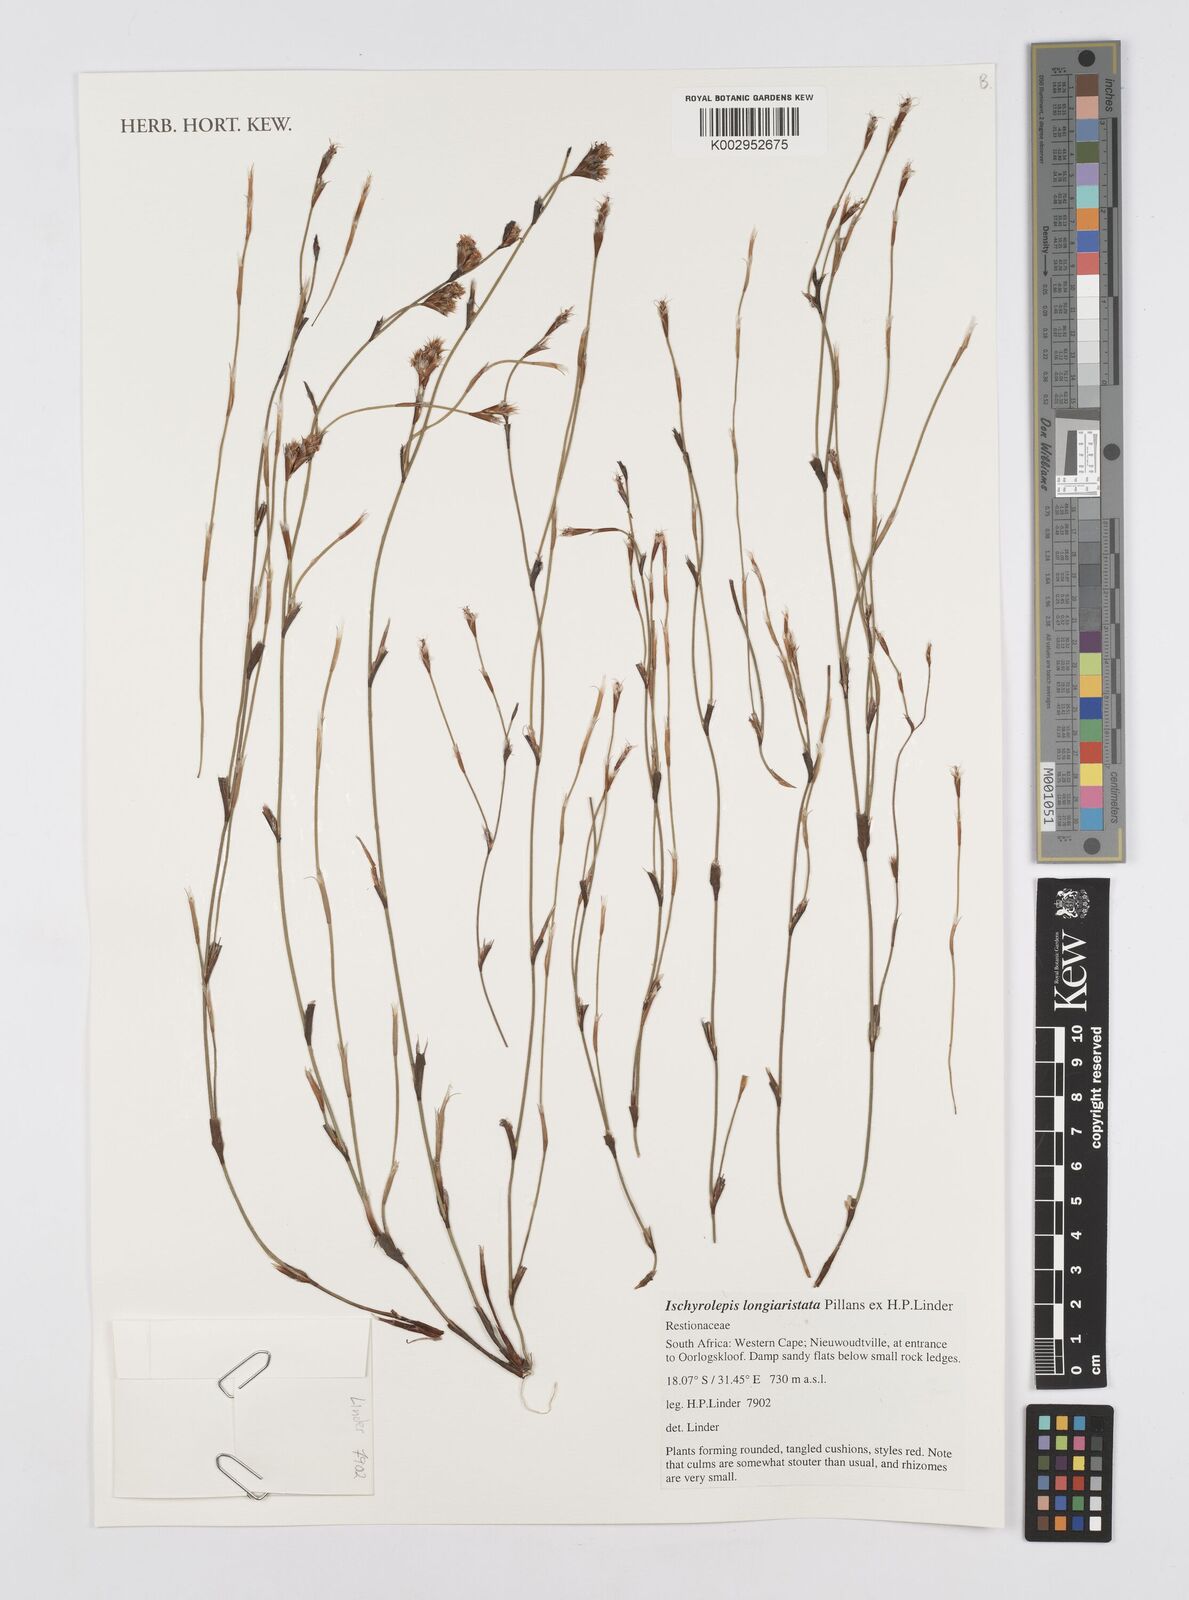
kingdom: Plantae
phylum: Tracheophyta
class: Liliopsida
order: Poales
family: Restionaceae
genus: Restio
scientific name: Restio longiaristatus
